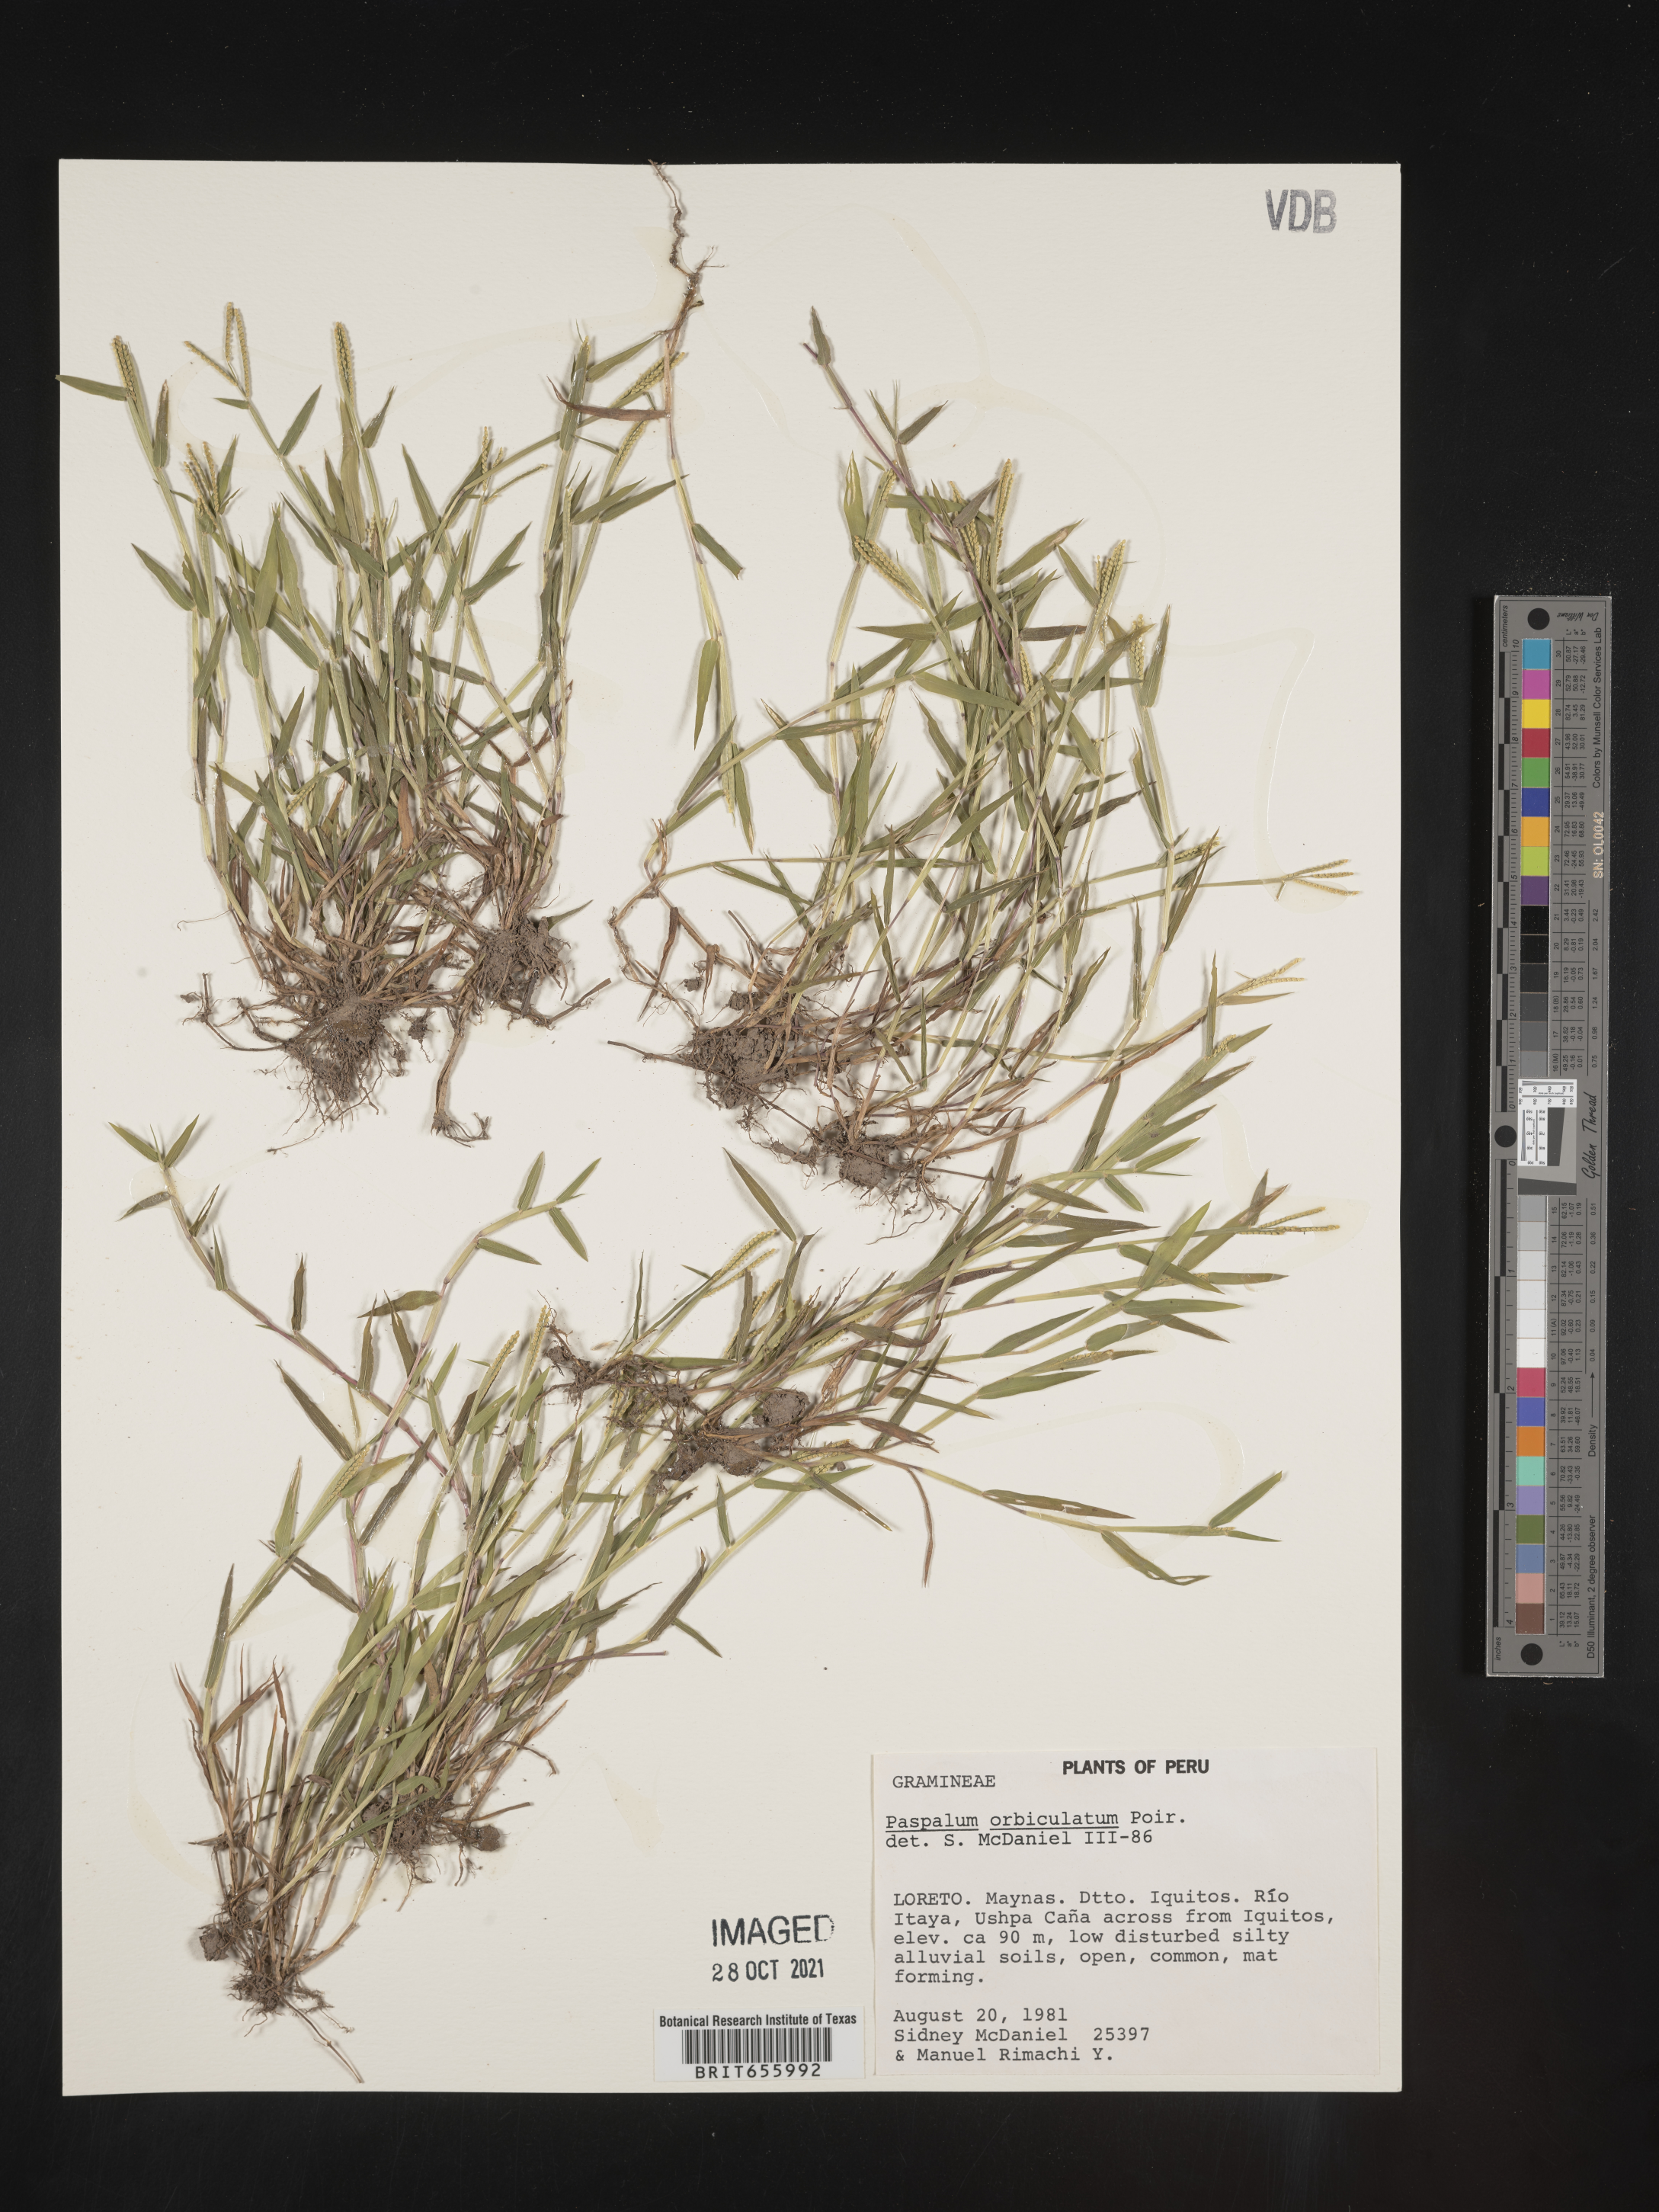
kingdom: Plantae
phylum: Tracheophyta
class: Liliopsida
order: Poales
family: Poaceae
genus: Paspalum
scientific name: Paspalum
